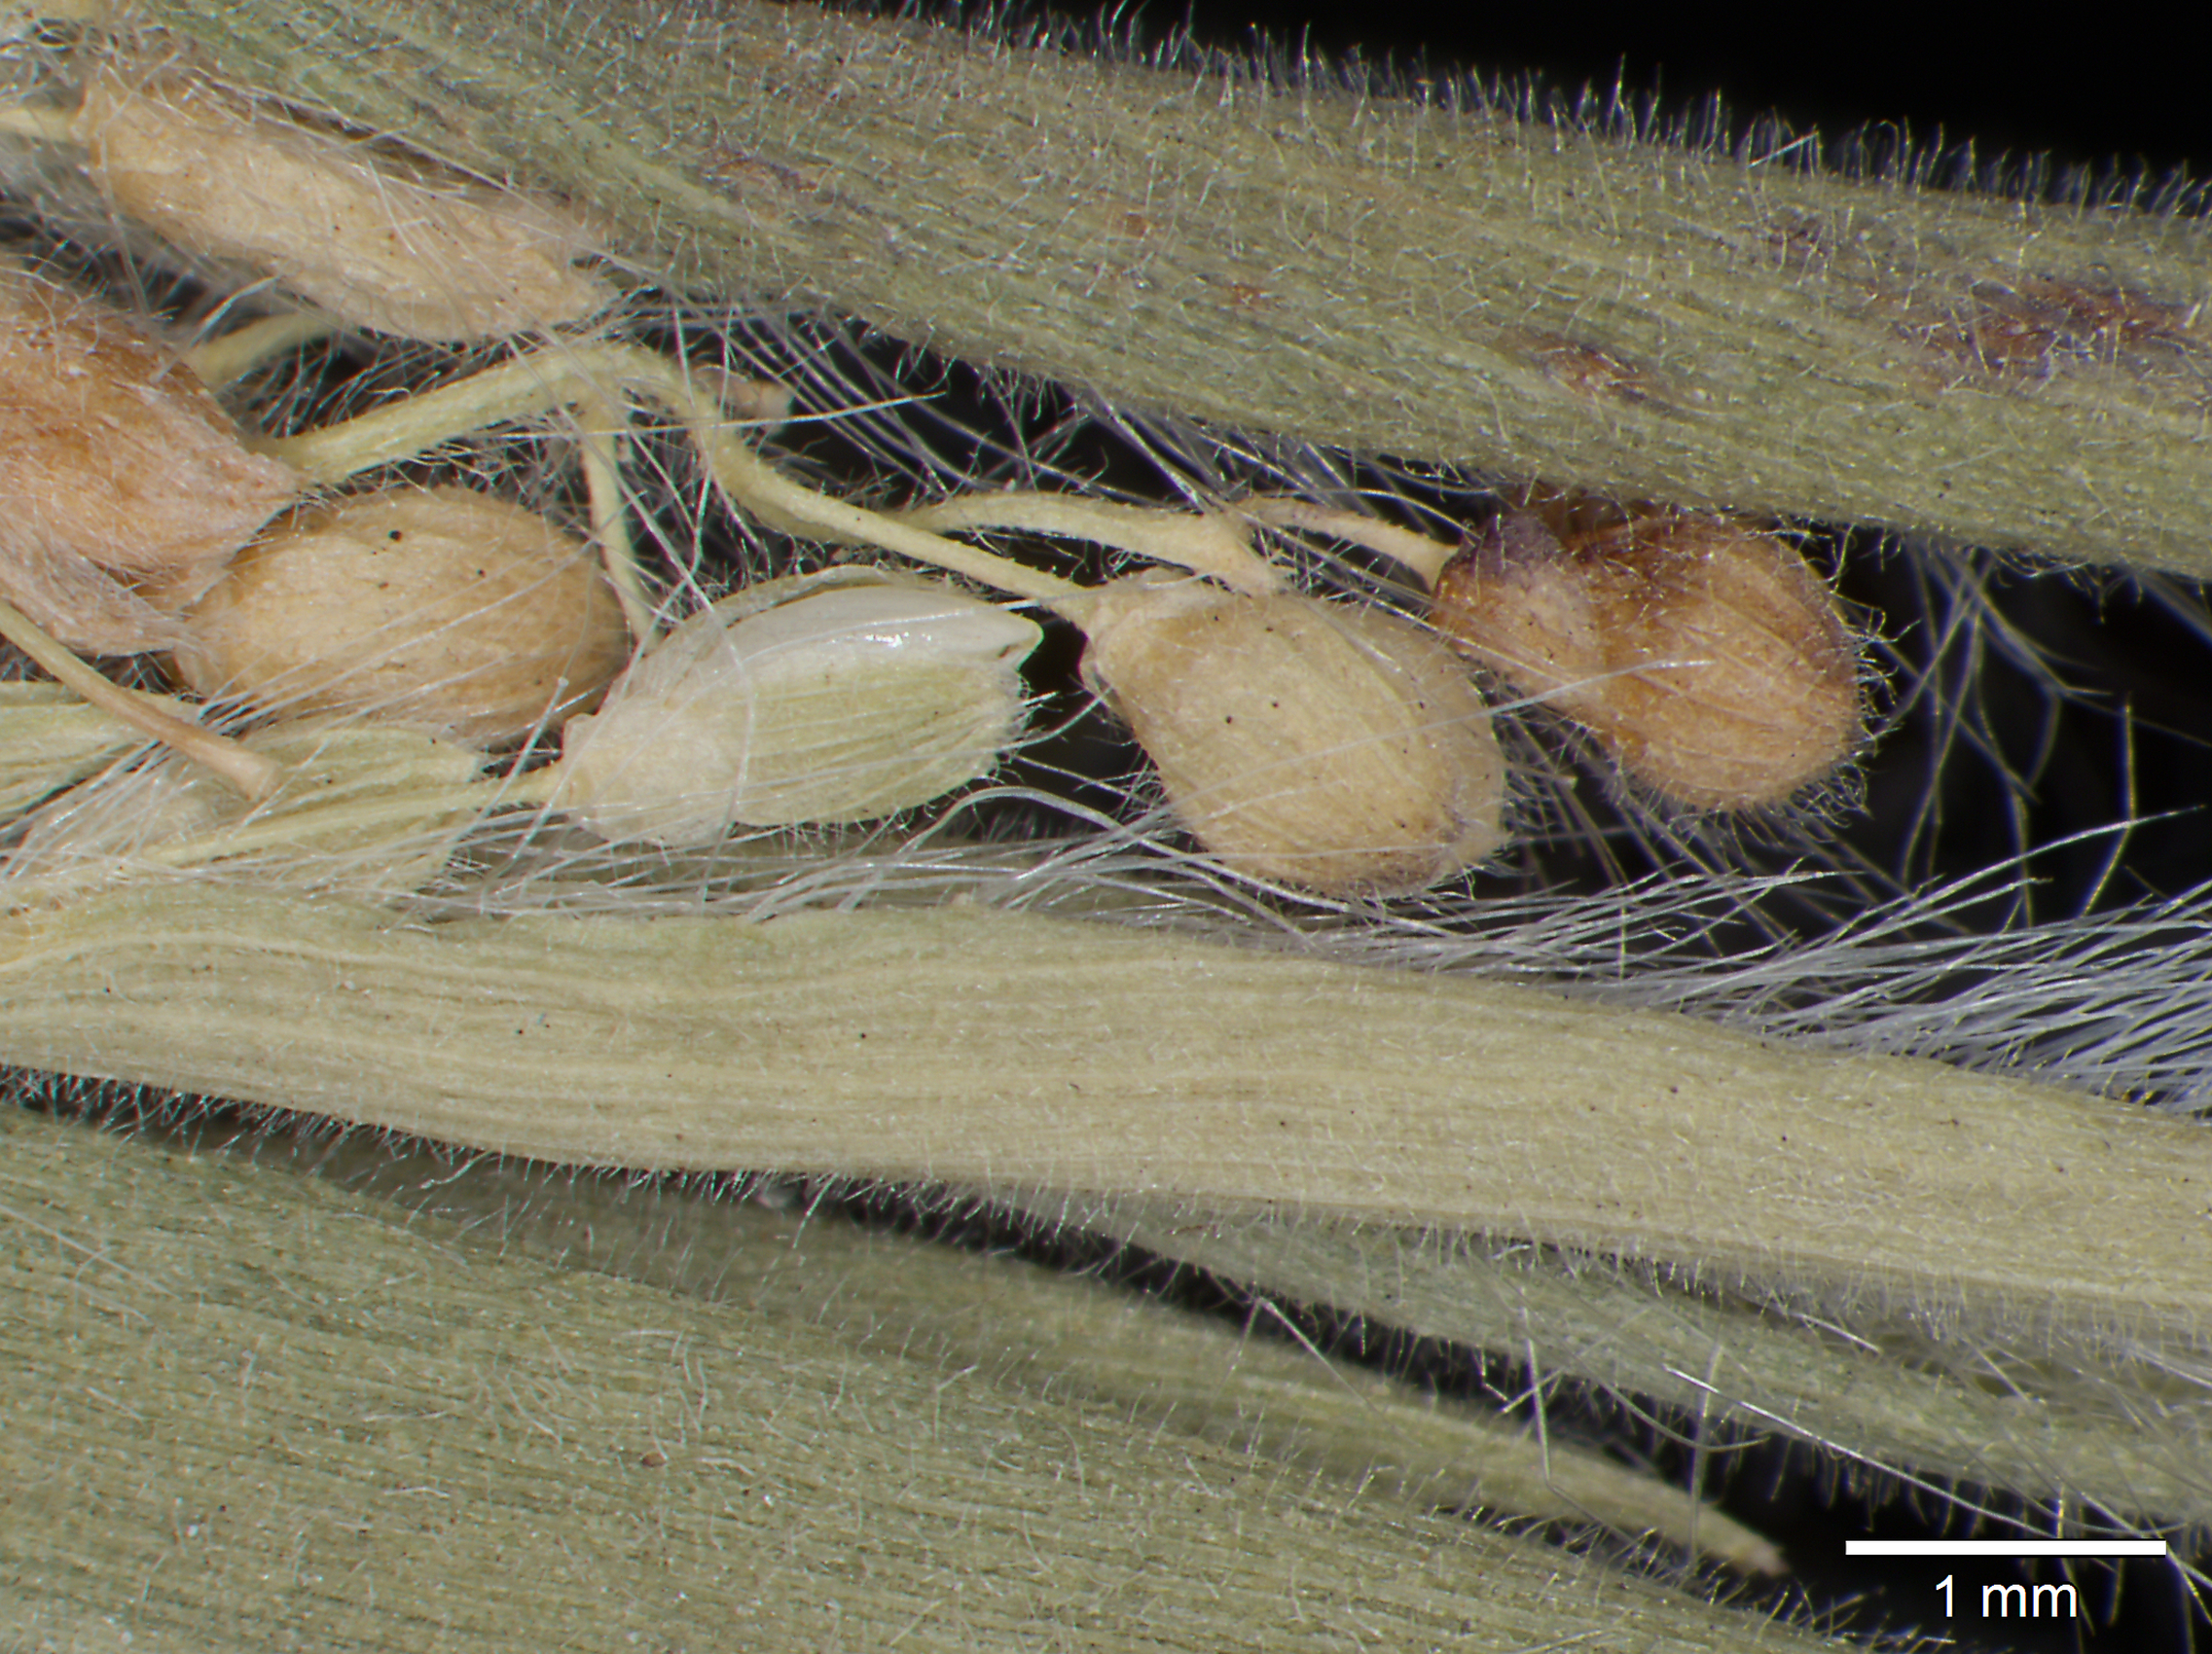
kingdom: Plantae
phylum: Tracheophyta
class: Liliopsida
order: Poales
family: Poaceae
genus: Dichanthelium
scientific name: Dichanthelium acuminatum
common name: Hairy panic grass
